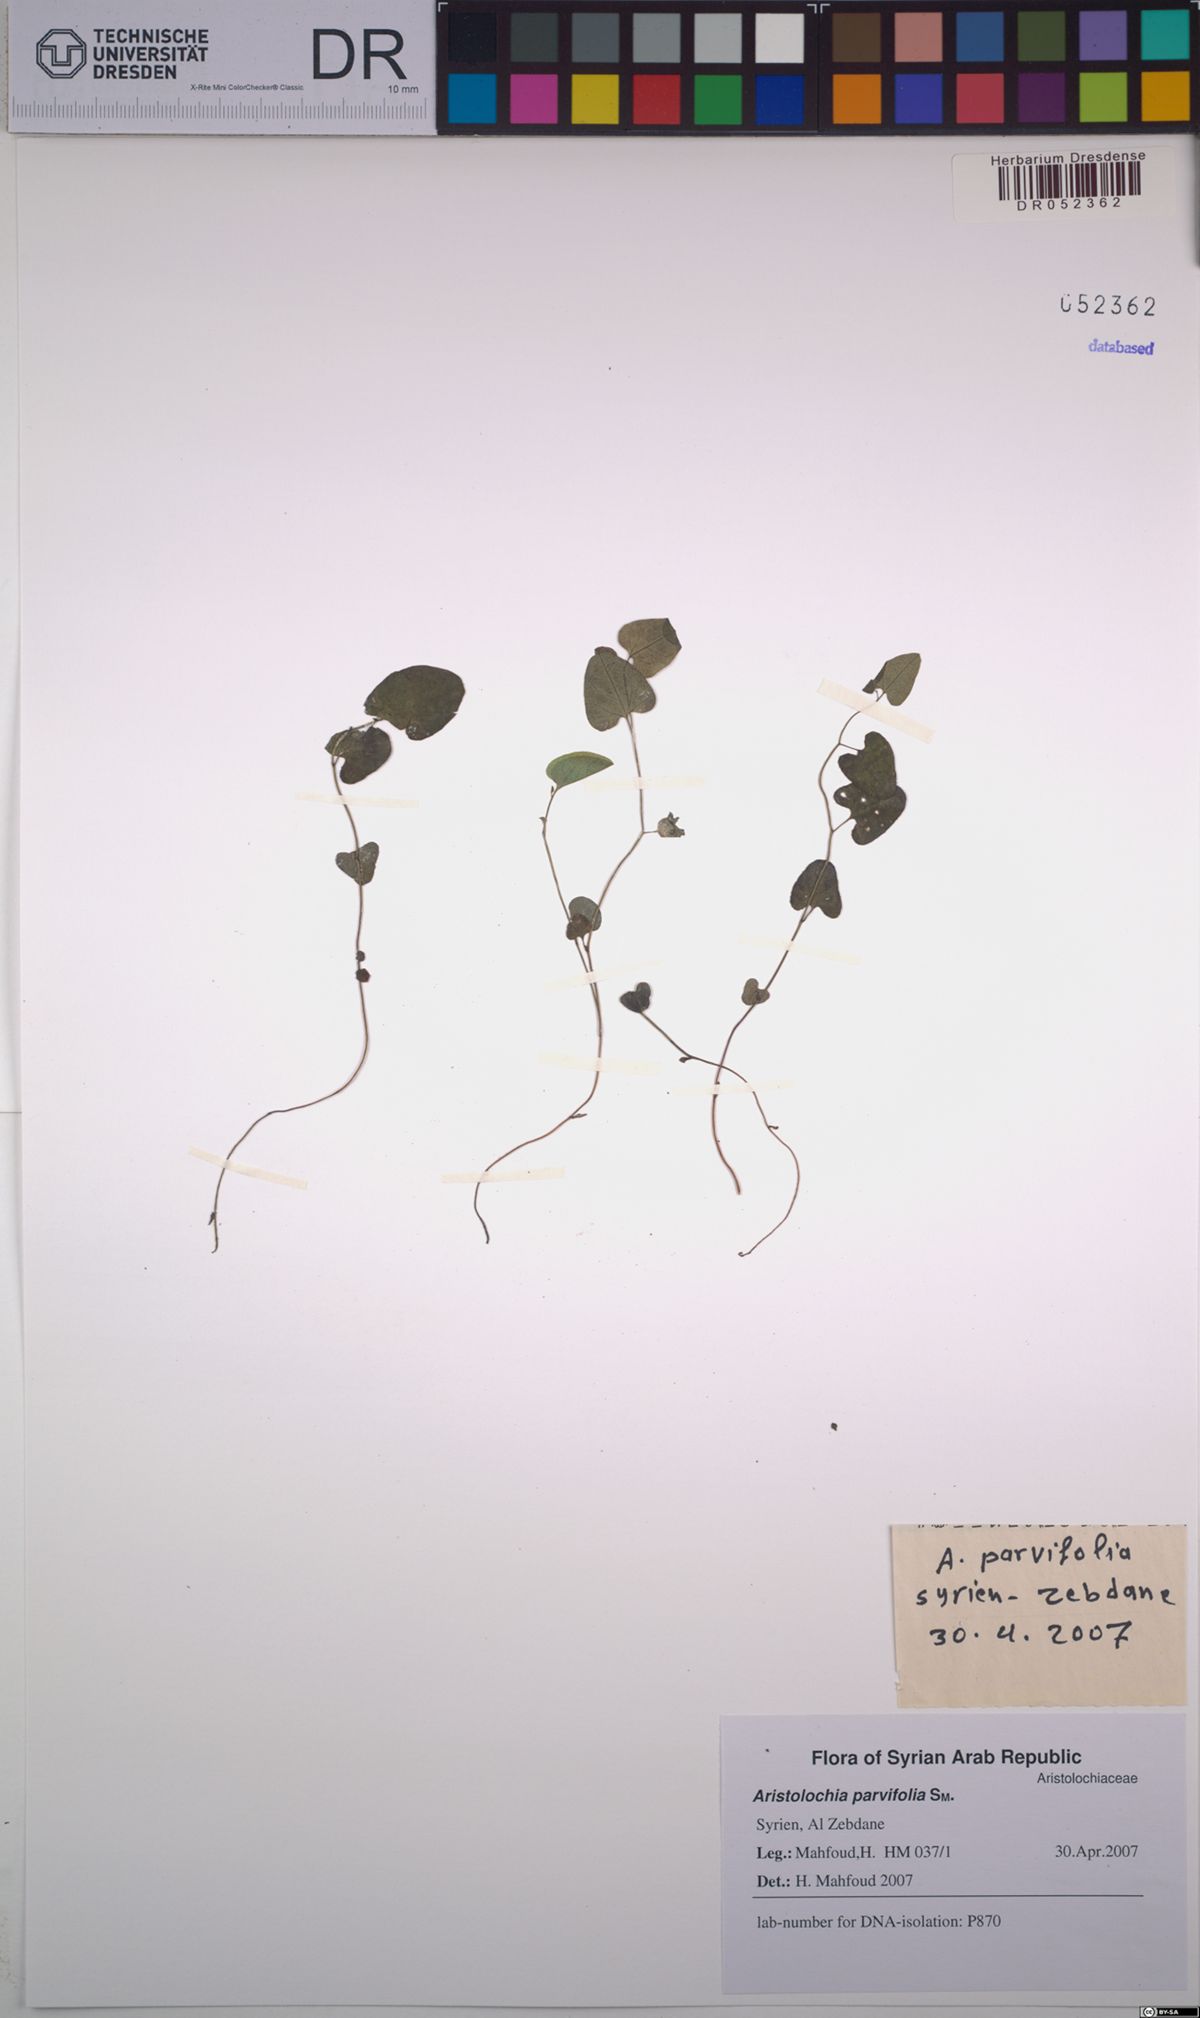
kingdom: Plantae
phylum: Tracheophyta
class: Magnoliopsida
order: Piperales
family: Aristolochiaceae
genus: Aristolochia
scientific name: Aristolochia parvifolia
